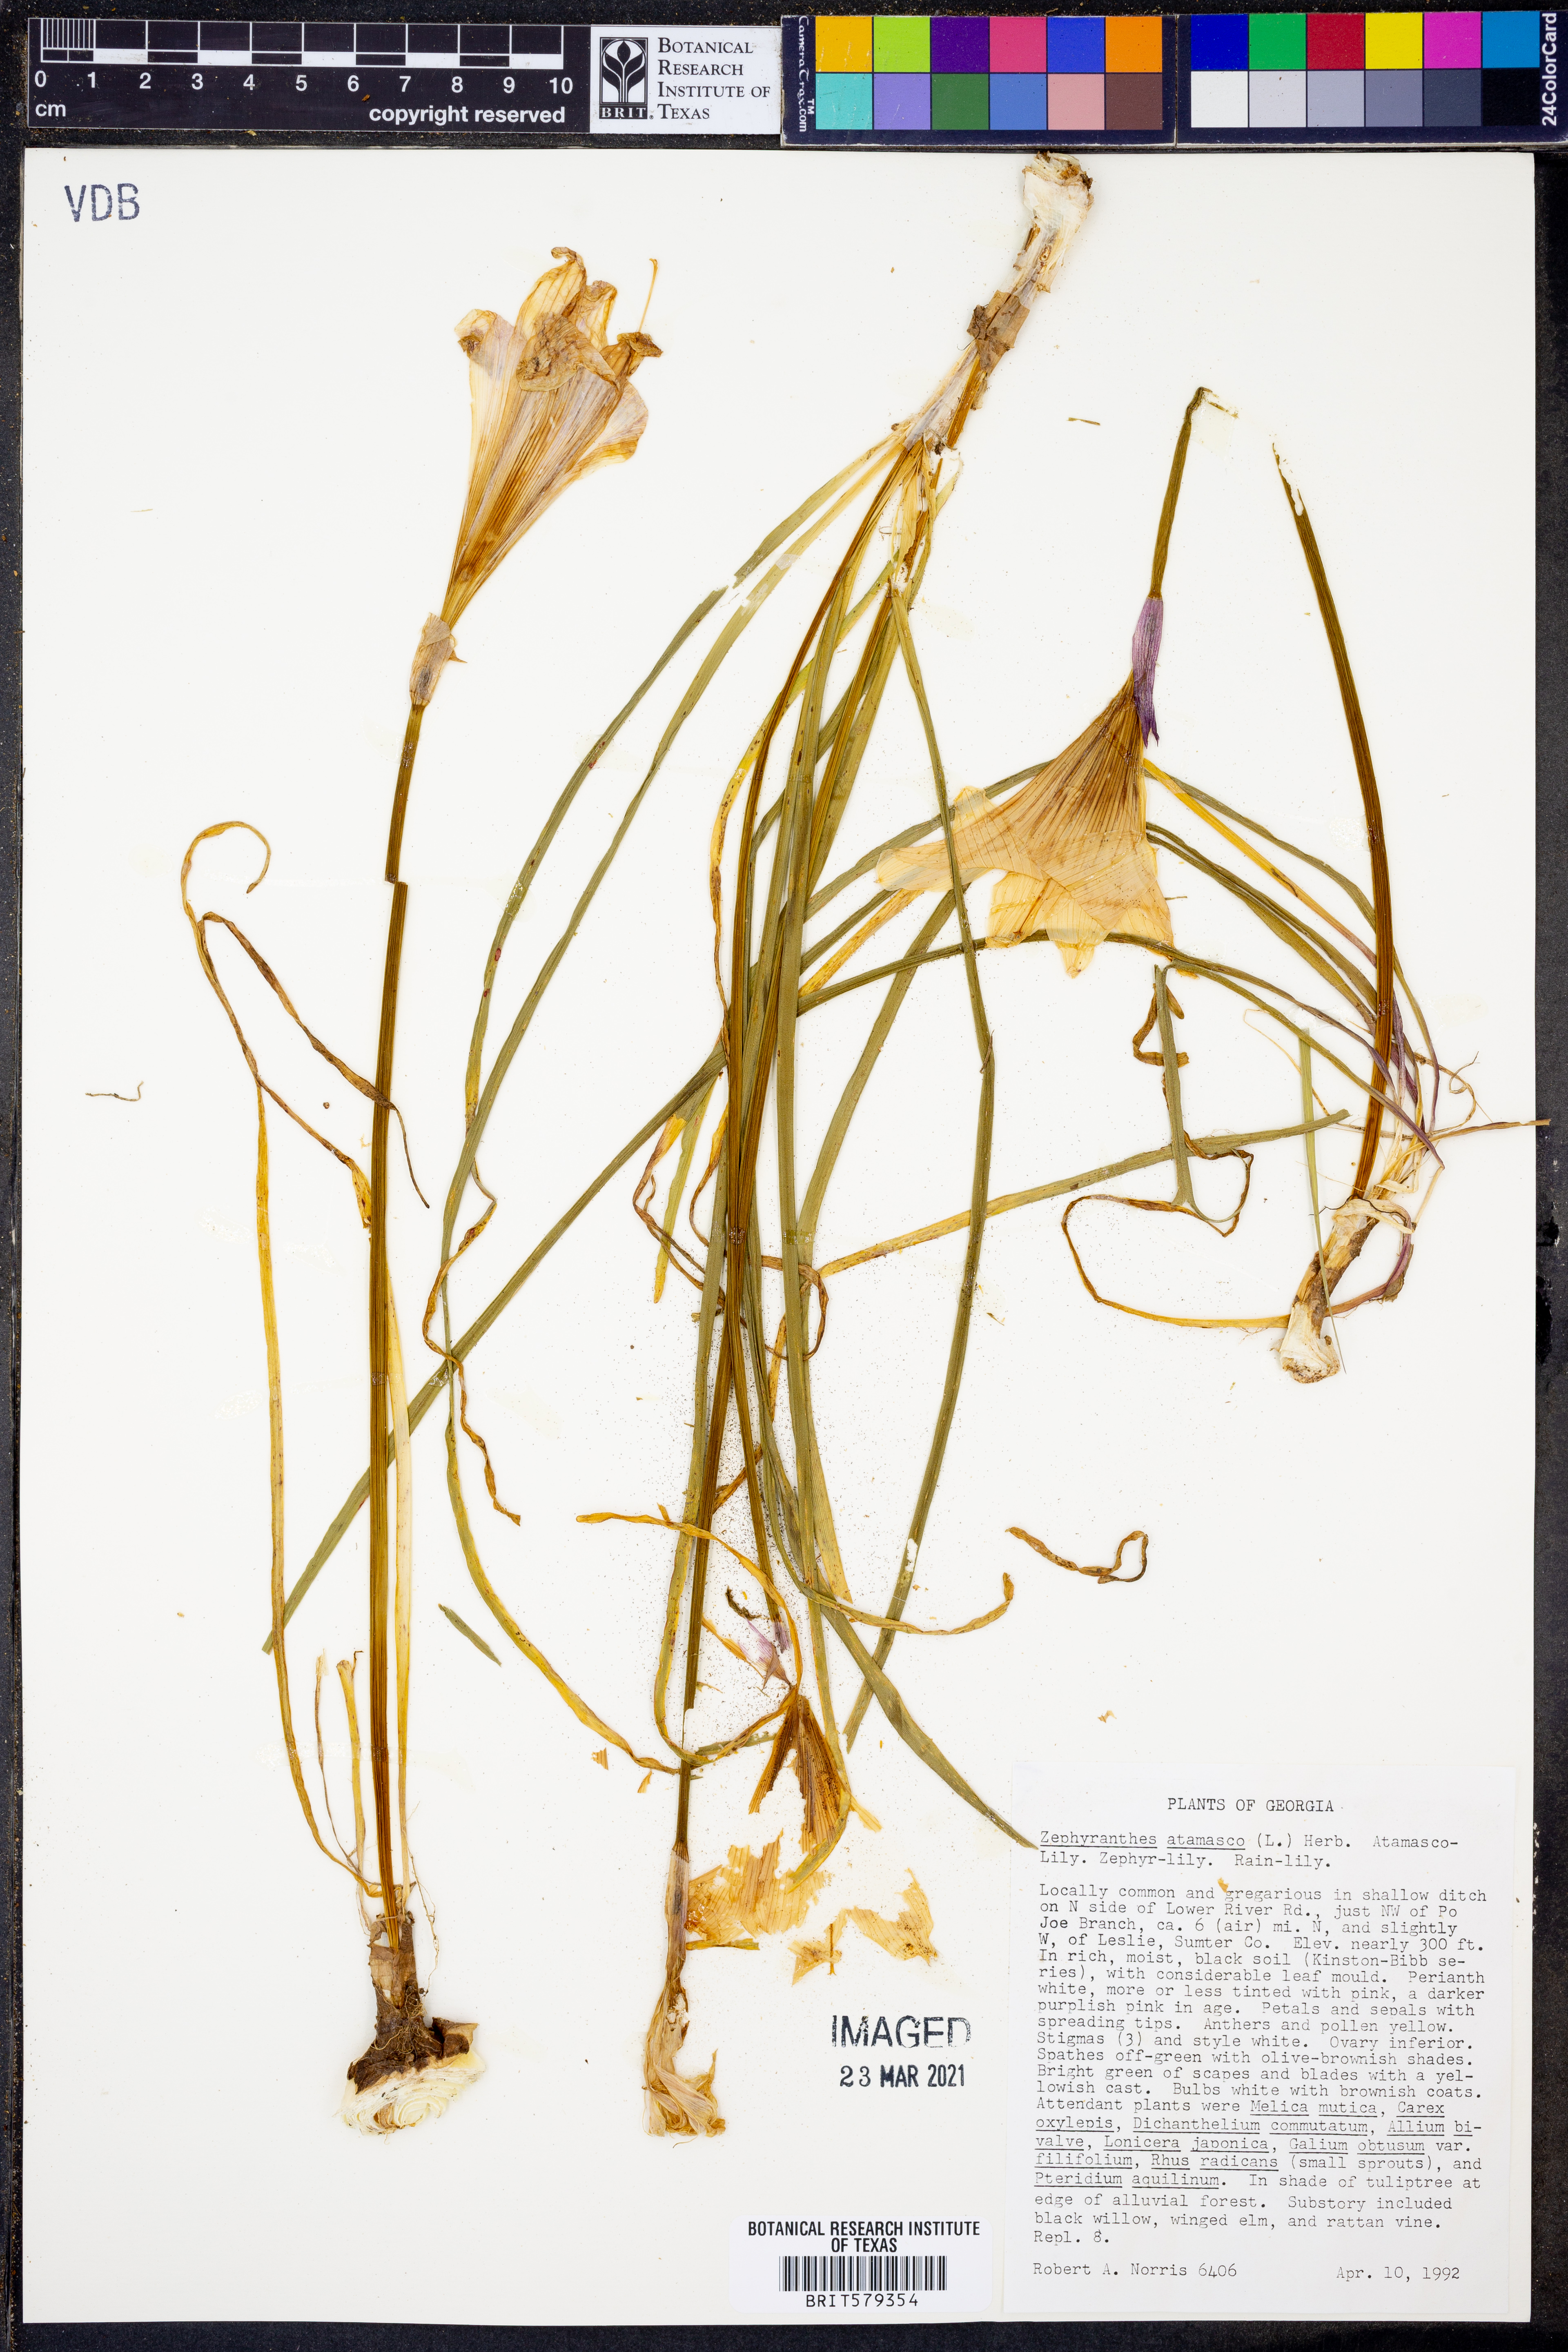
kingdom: Plantae
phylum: Tracheophyta
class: Liliopsida
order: Asparagales
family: Amaryllidaceae
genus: Zephyranthes
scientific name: Zephyranthes atamasco
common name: Atamasco lily
